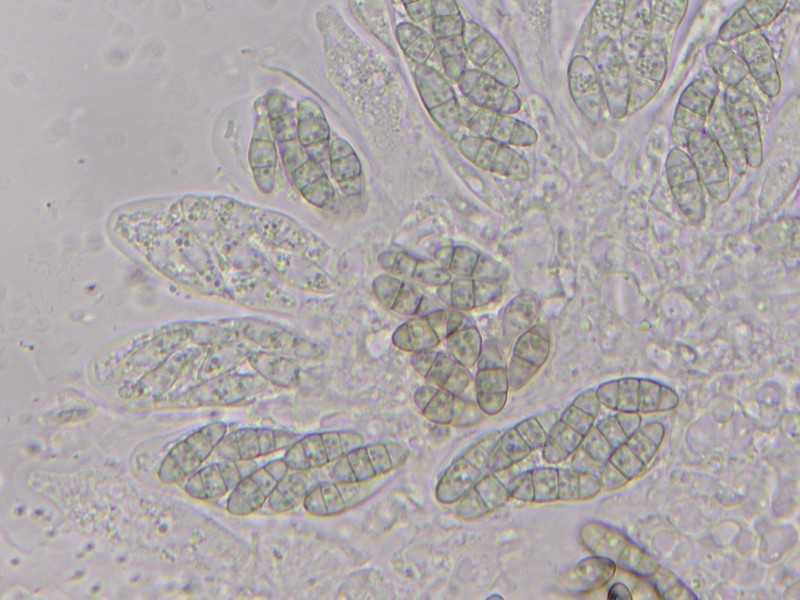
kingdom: Fungi
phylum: Ascomycota
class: Dothideomycetes
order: Pleosporales
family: Melanommataceae
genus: Melanomma
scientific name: Melanomma spiniferum
